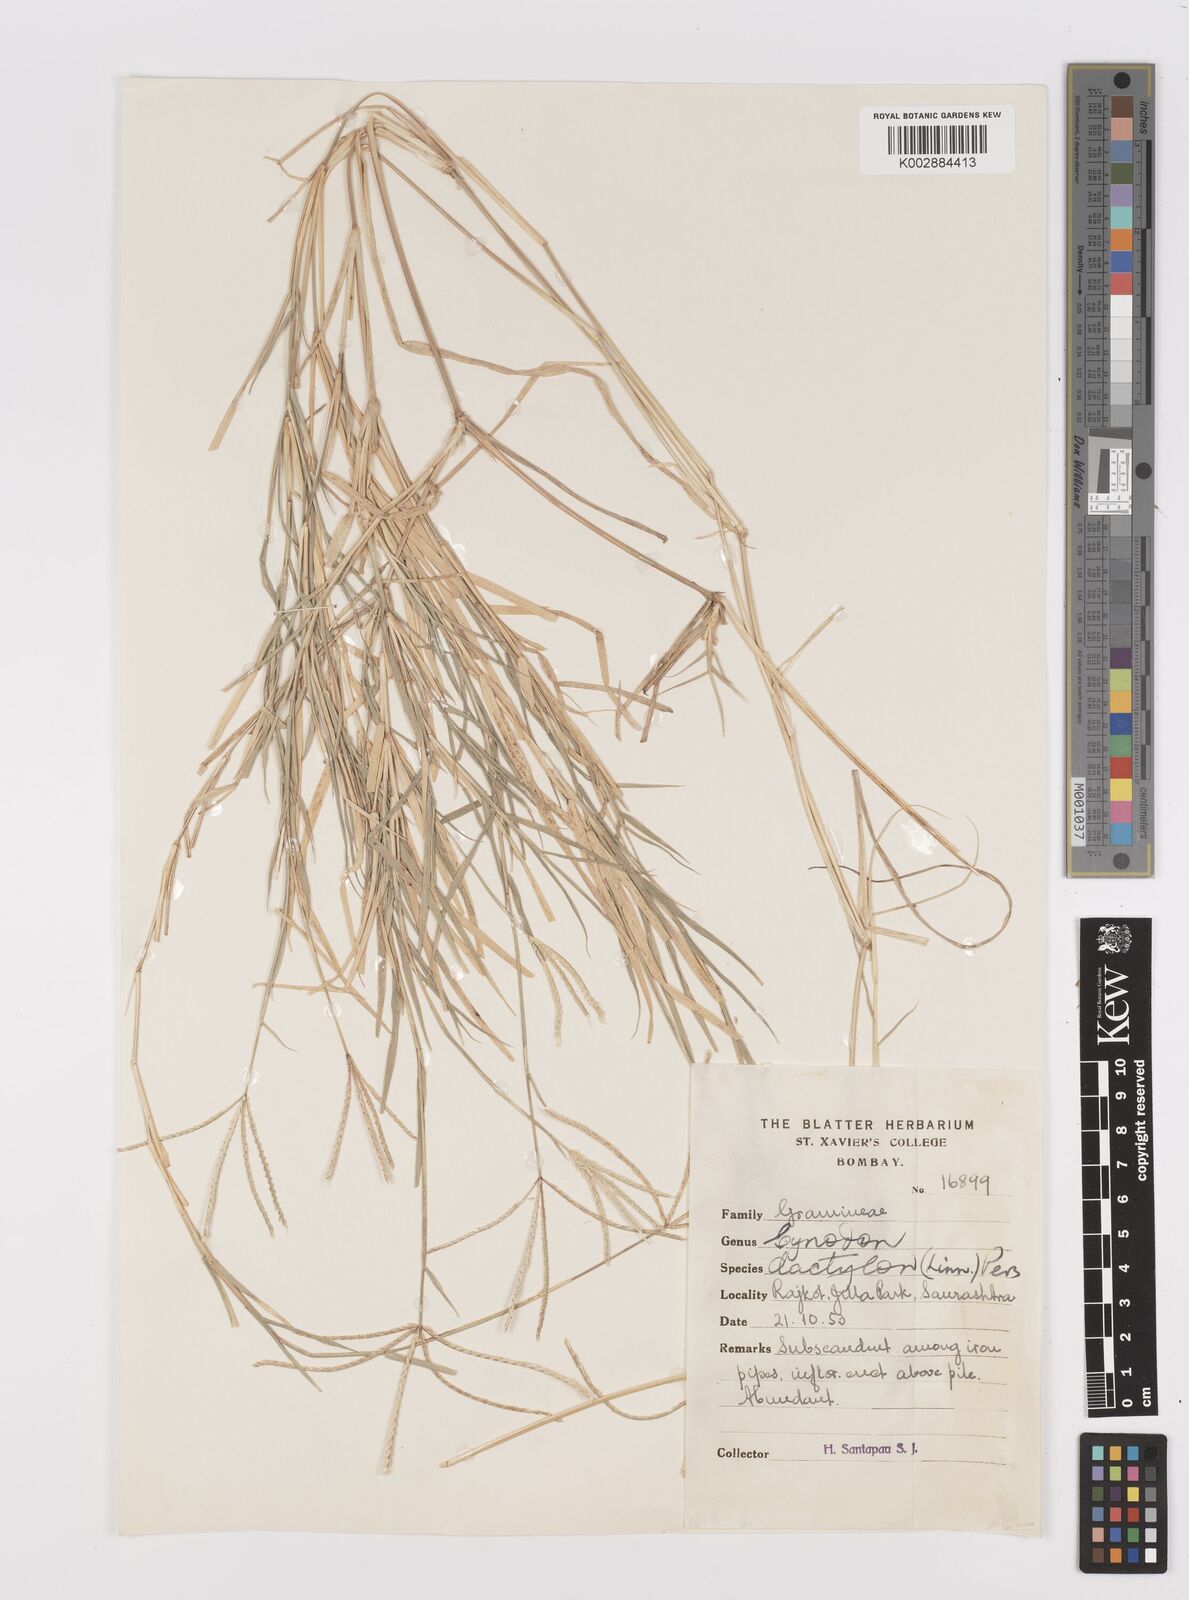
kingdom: Plantae
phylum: Tracheophyta
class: Liliopsida
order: Poales
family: Poaceae
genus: Cynodon
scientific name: Cynodon dactylon
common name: Bermuda grass
